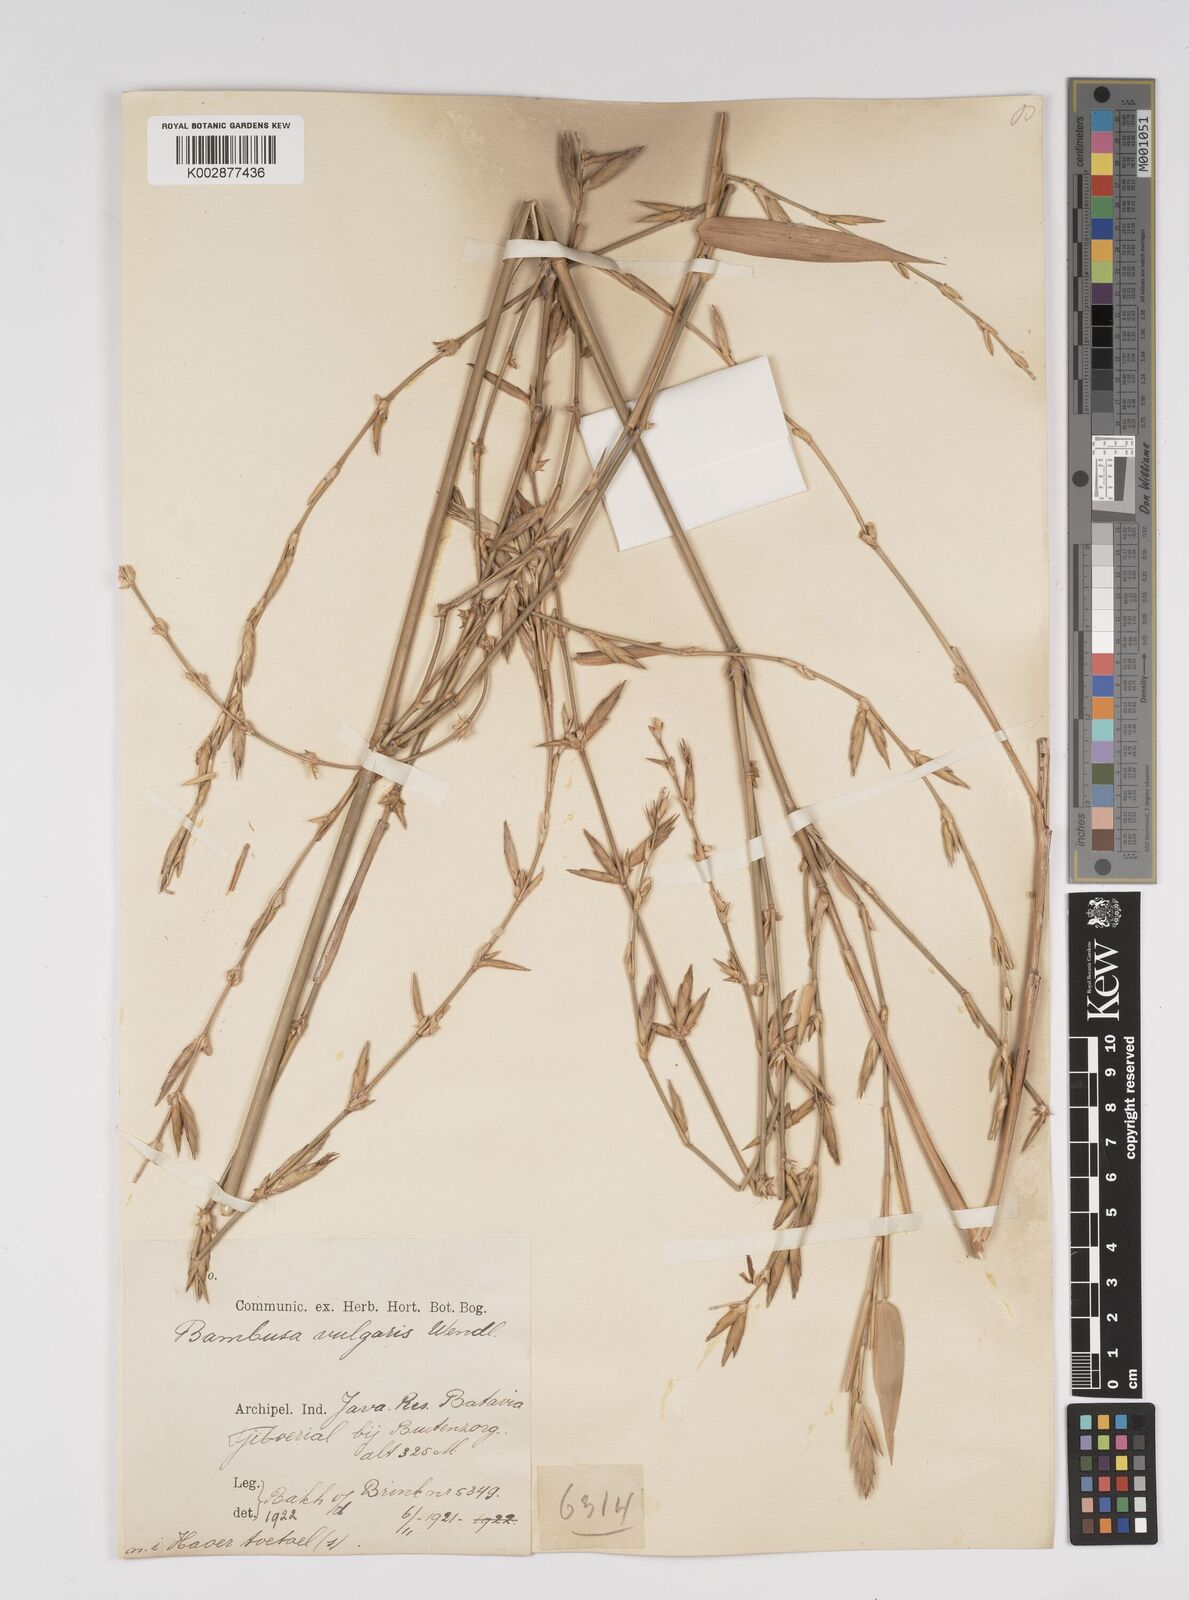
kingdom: Plantae
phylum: Tracheophyta
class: Liliopsida
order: Poales
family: Poaceae
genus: Bambusa
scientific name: Bambusa vulgaris
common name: Common bamboo
